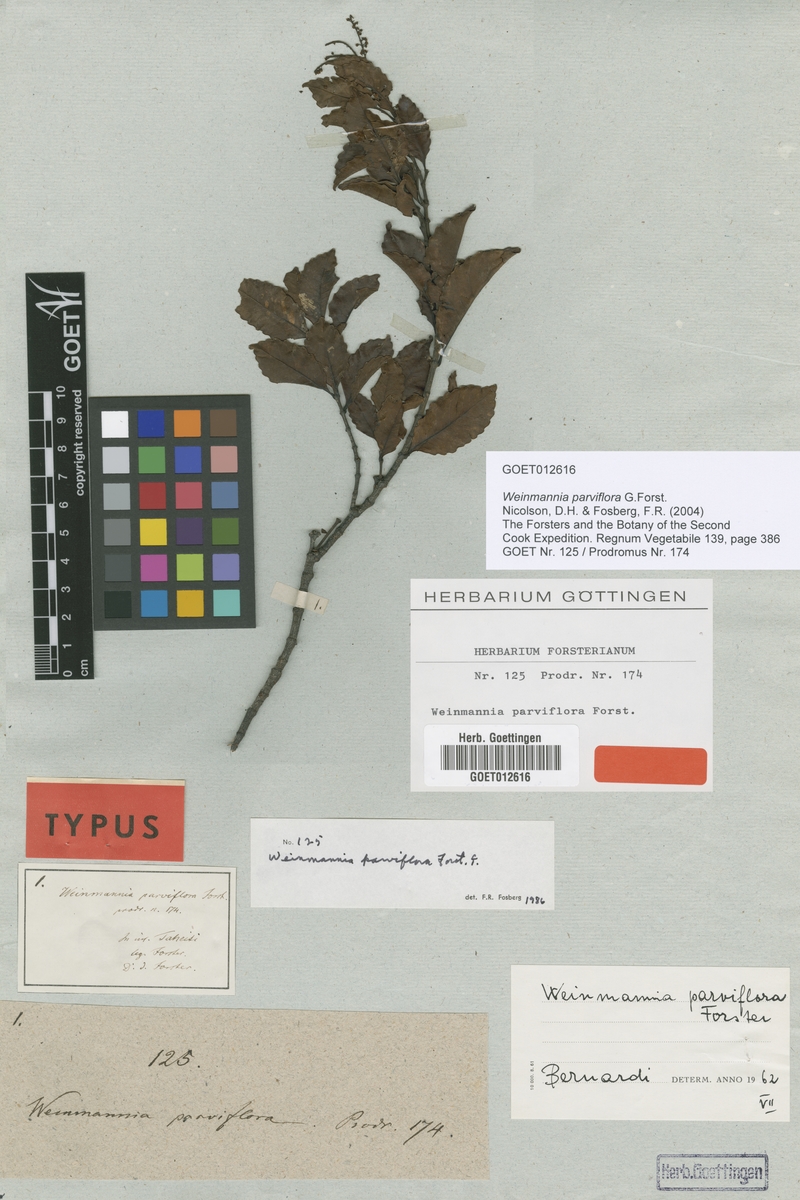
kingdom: Plantae
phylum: Tracheophyta
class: Magnoliopsida
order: Oxalidales
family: Cunoniaceae
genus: Pterophylla
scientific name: Pterophylla parviflora
